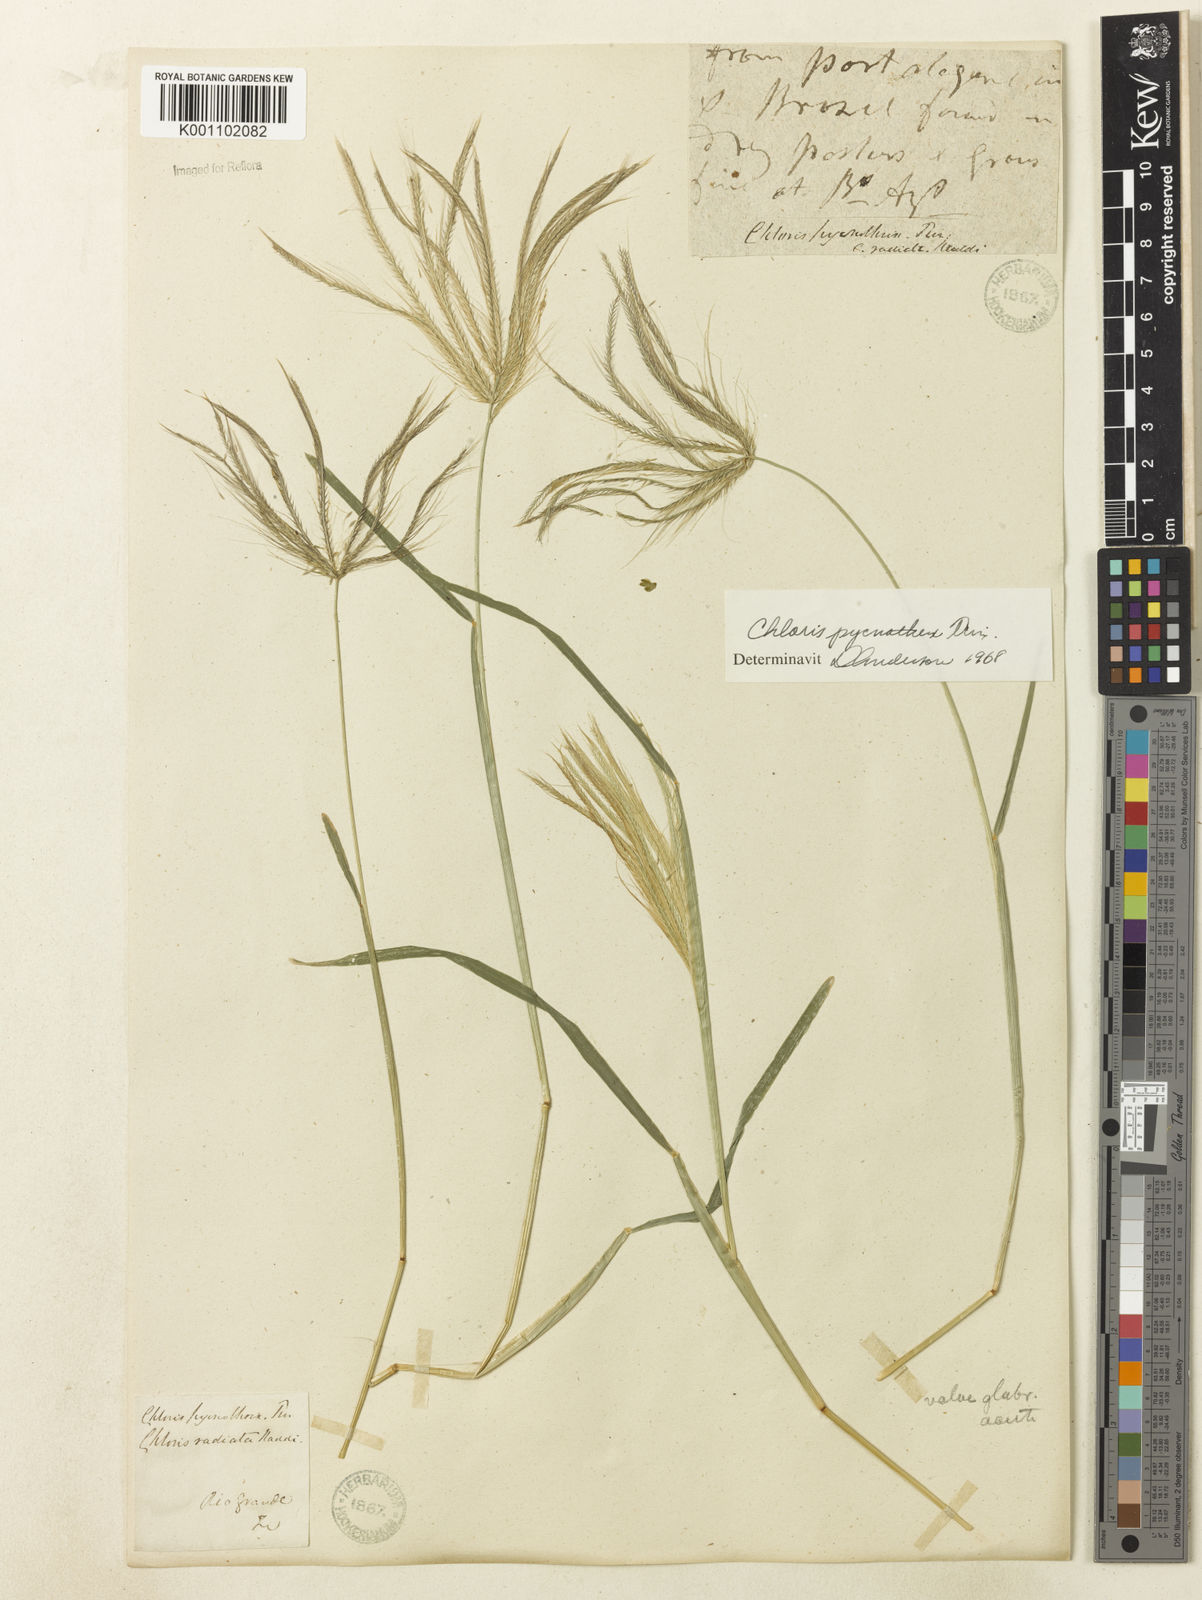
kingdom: Plantae
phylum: Tracheophyta
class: Liliopsida
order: Poales
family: Poaceae
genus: Chloris
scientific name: Chloris pycnothrix
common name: Spiderweb chloris
